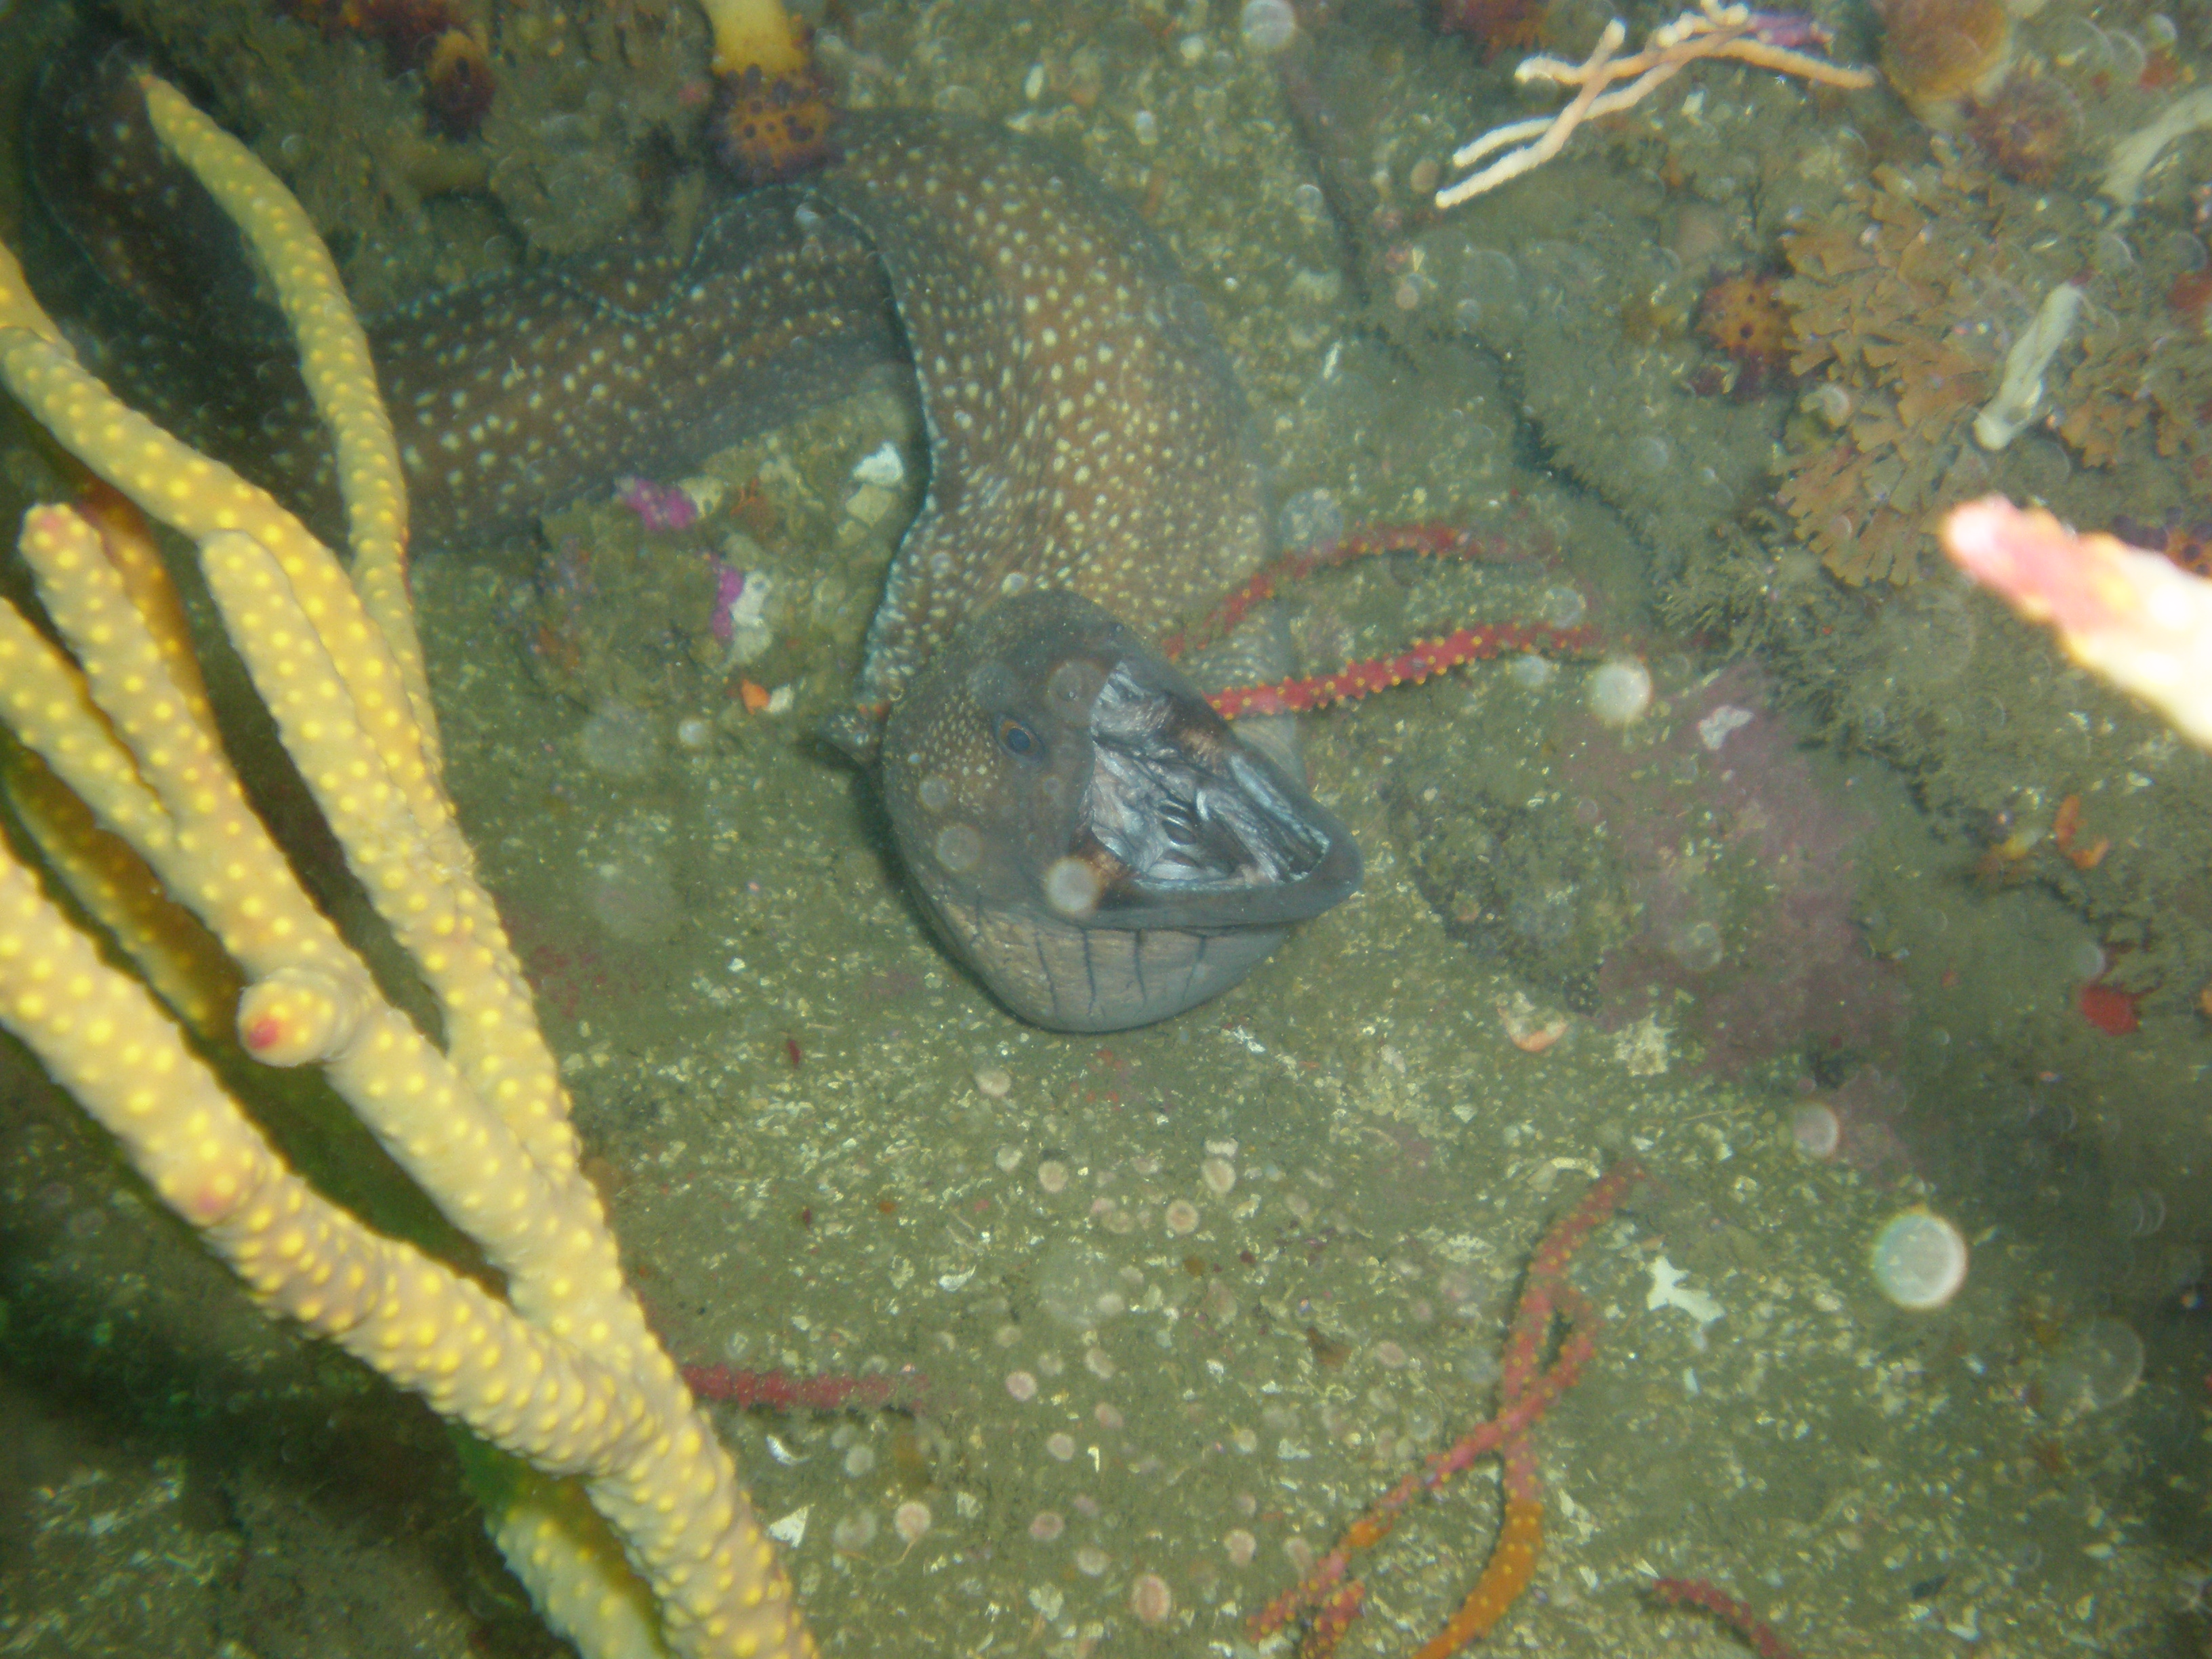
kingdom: Animalia
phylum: Chordata
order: Anguilliformes
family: Muraenidae
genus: Gymnothorax
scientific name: Gymnothorax johnsoni
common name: Whitespotted moray
